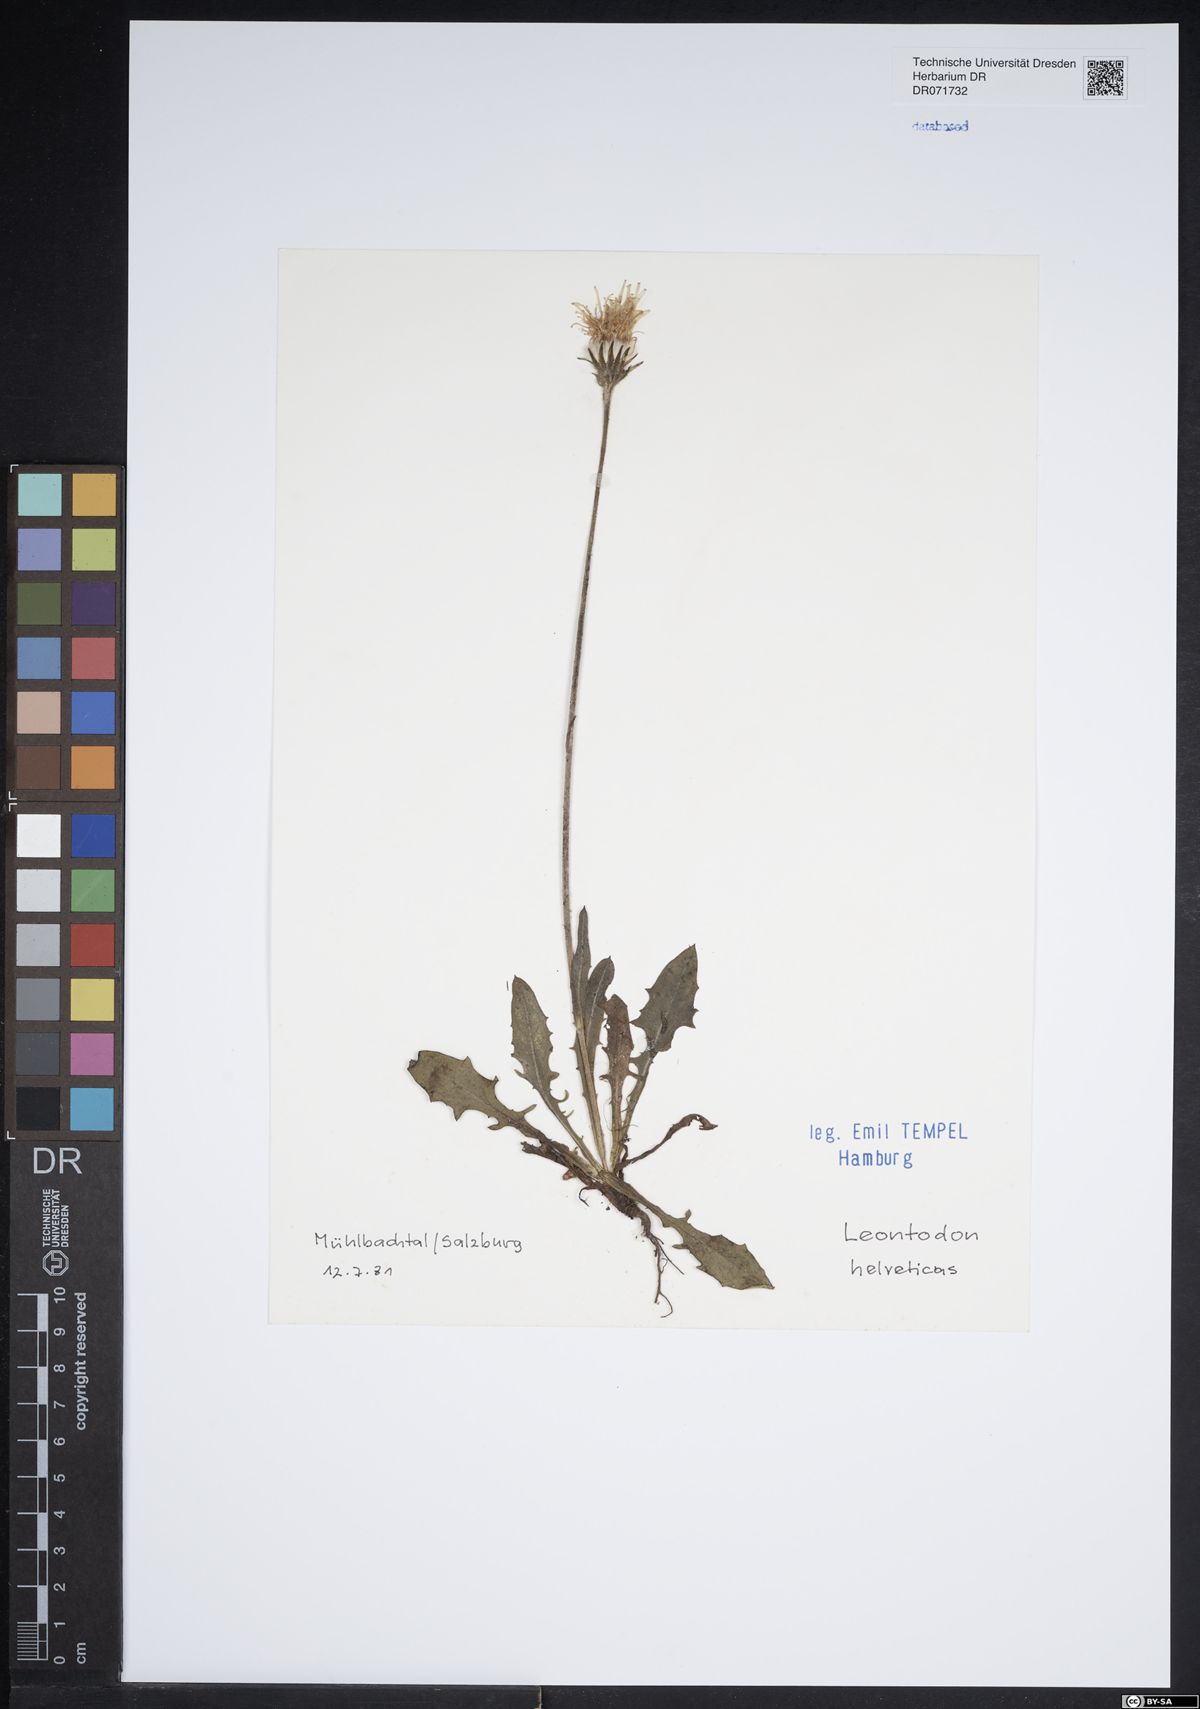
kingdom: Plantae
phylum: Tracheophyta
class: Magnoliopsida
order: Asterales
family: Asteraceae
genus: Scorzoneroides
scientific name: Scorzoneroides helvetica
